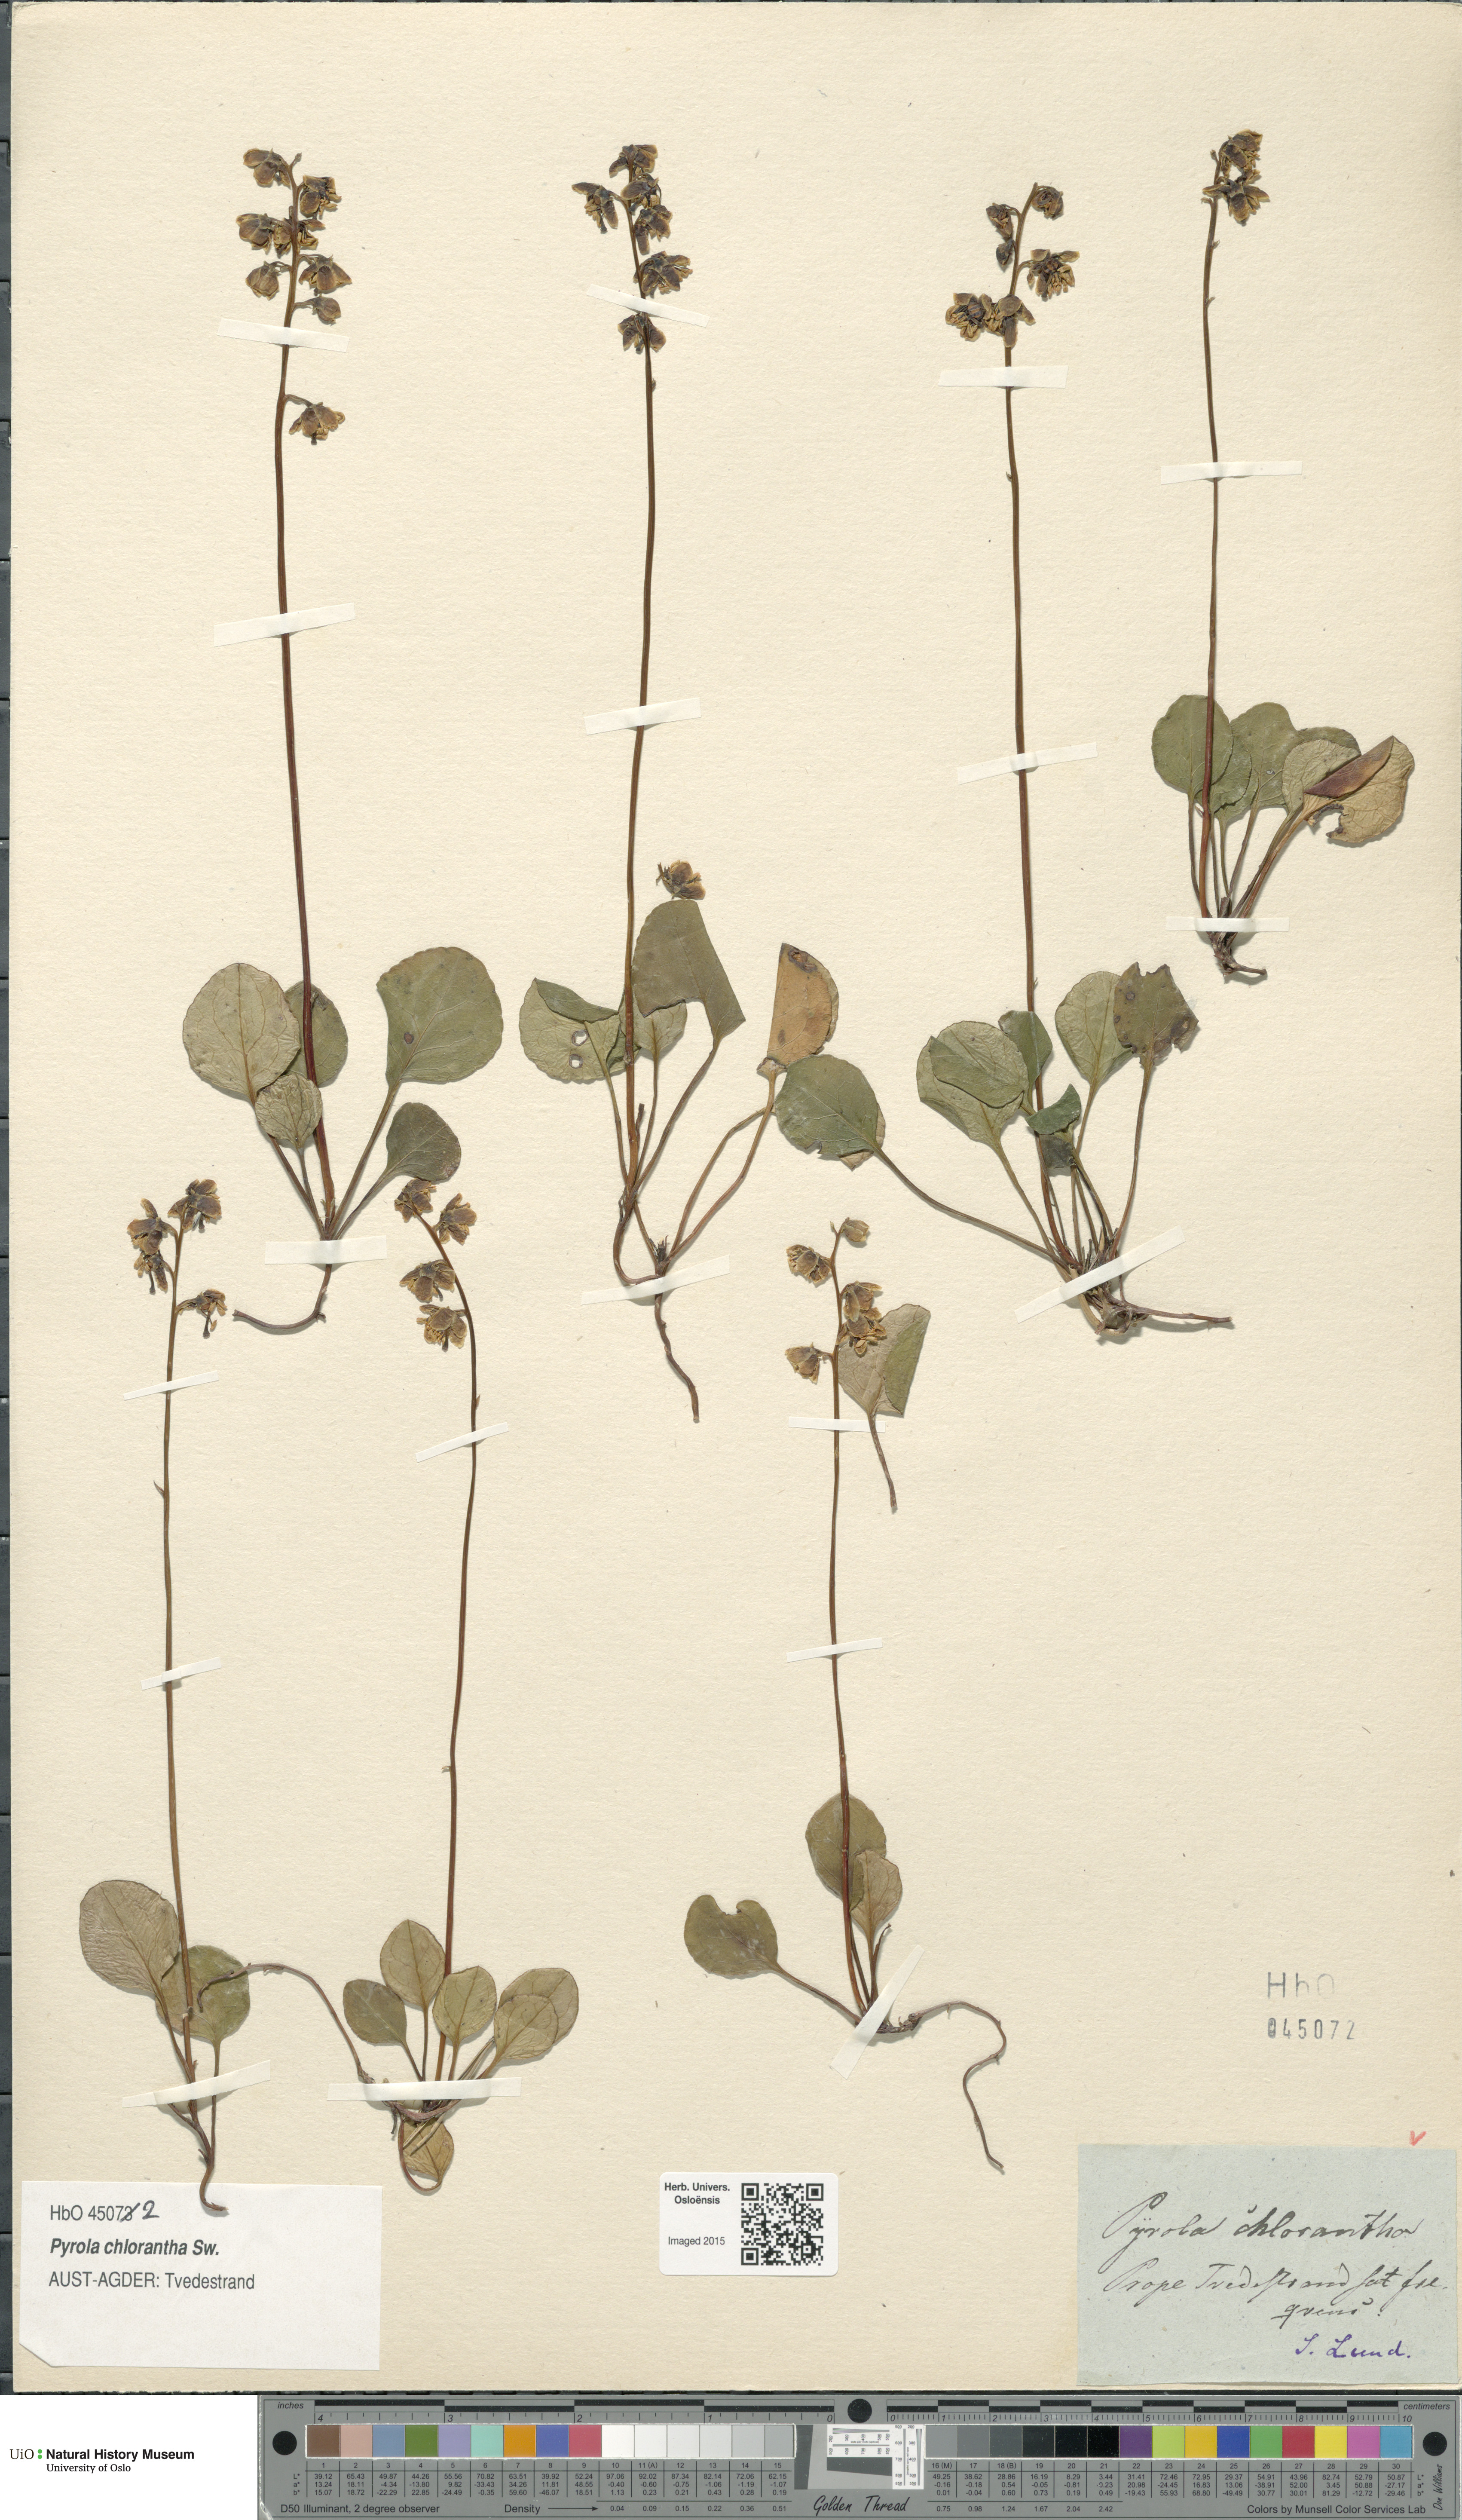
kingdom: Plantae
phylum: Tracheophyta
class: Magnoliopsida
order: Ericales
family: Ericaceae
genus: Pyrola
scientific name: Pyrola chlorantha
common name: Green wintergreen
